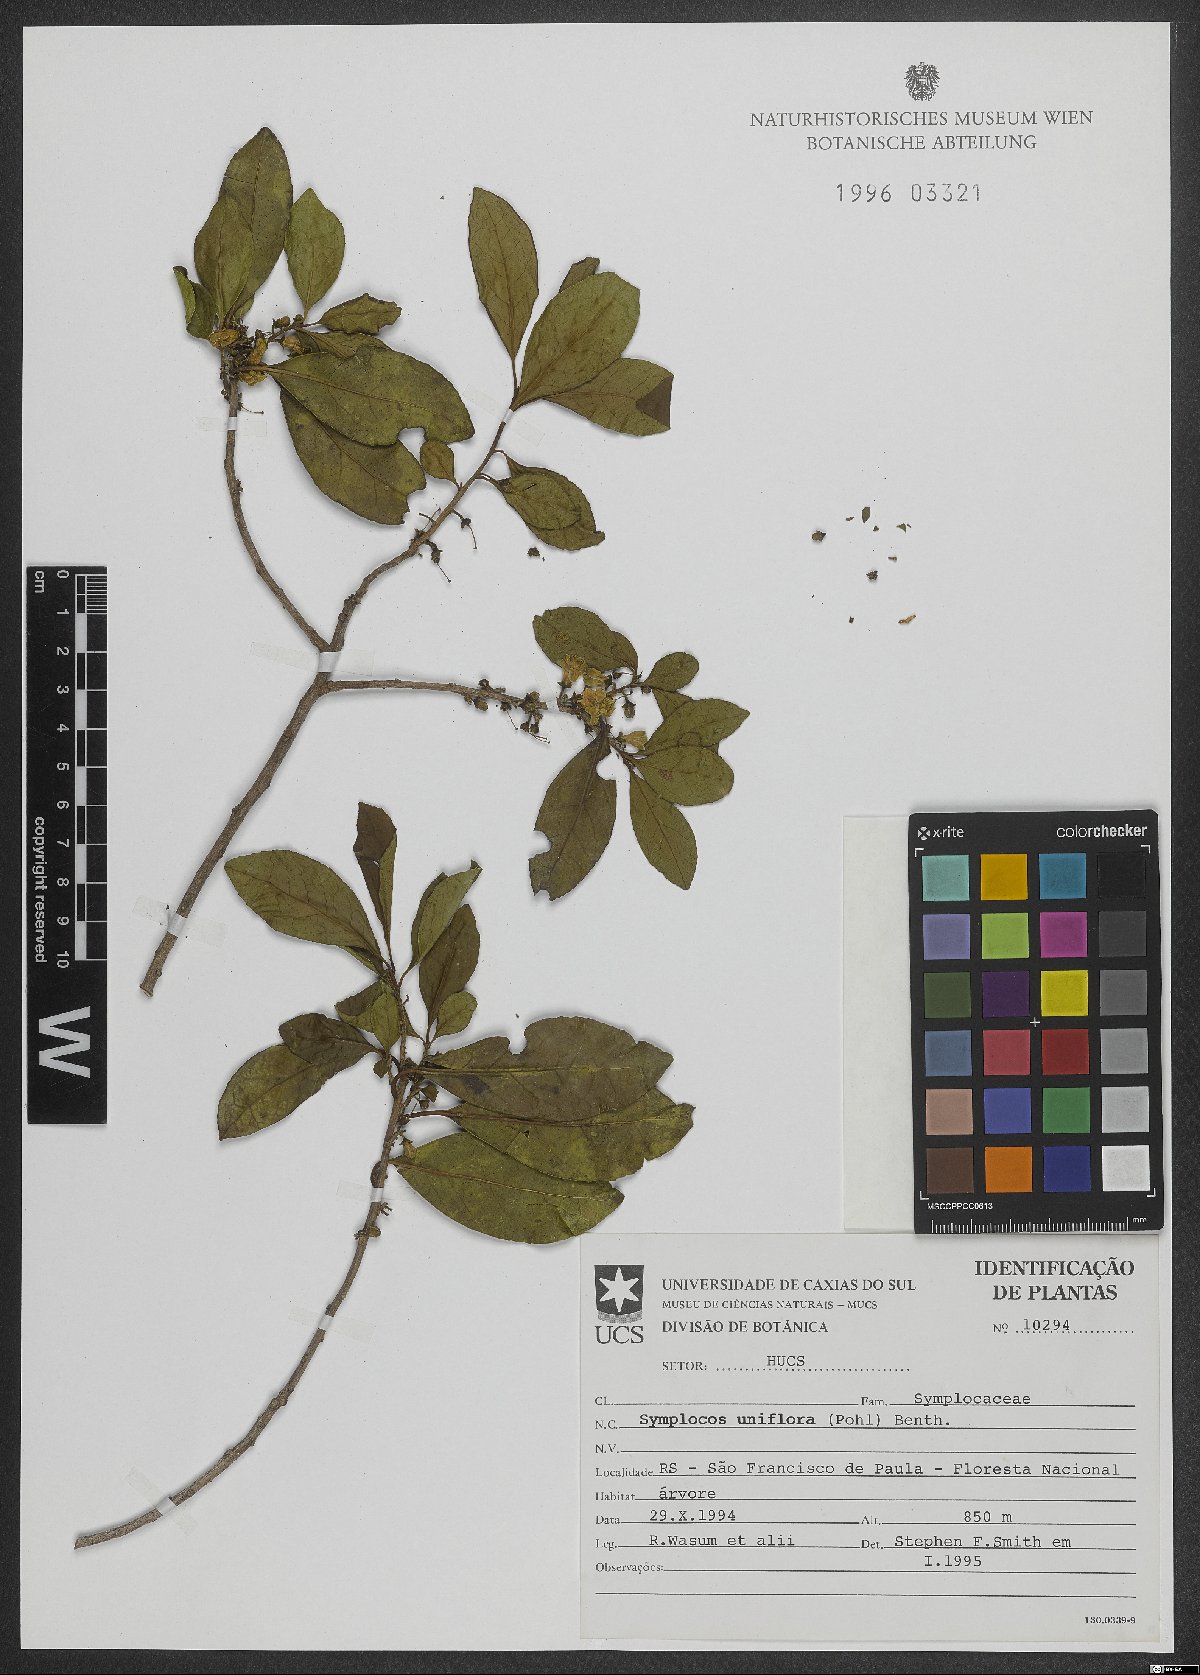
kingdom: Plantae
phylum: Tracheophyta
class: Magnoliopsida
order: Ericales
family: Symplocaceae
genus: Symplocos
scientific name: Symplocos uniflora
